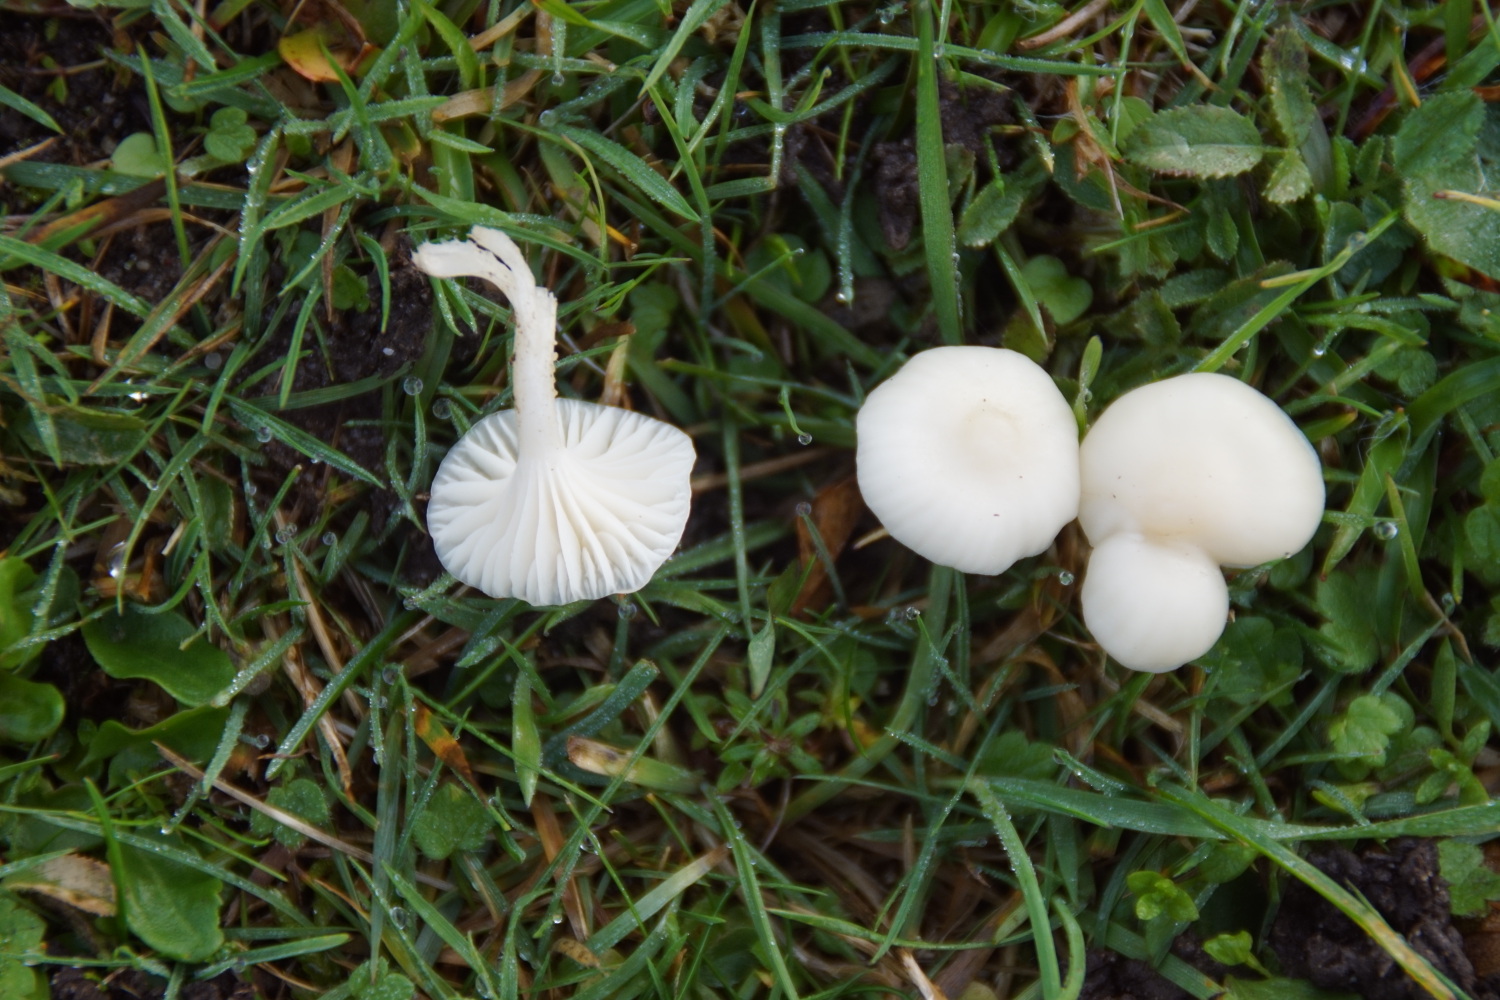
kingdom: Fungi
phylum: Basidiomycota
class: Agaricomycetes
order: Agaricales
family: Hygrophoraceae
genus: Cuphophyllus
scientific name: Cuphophyllus virgineus
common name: snehvid vokshat
